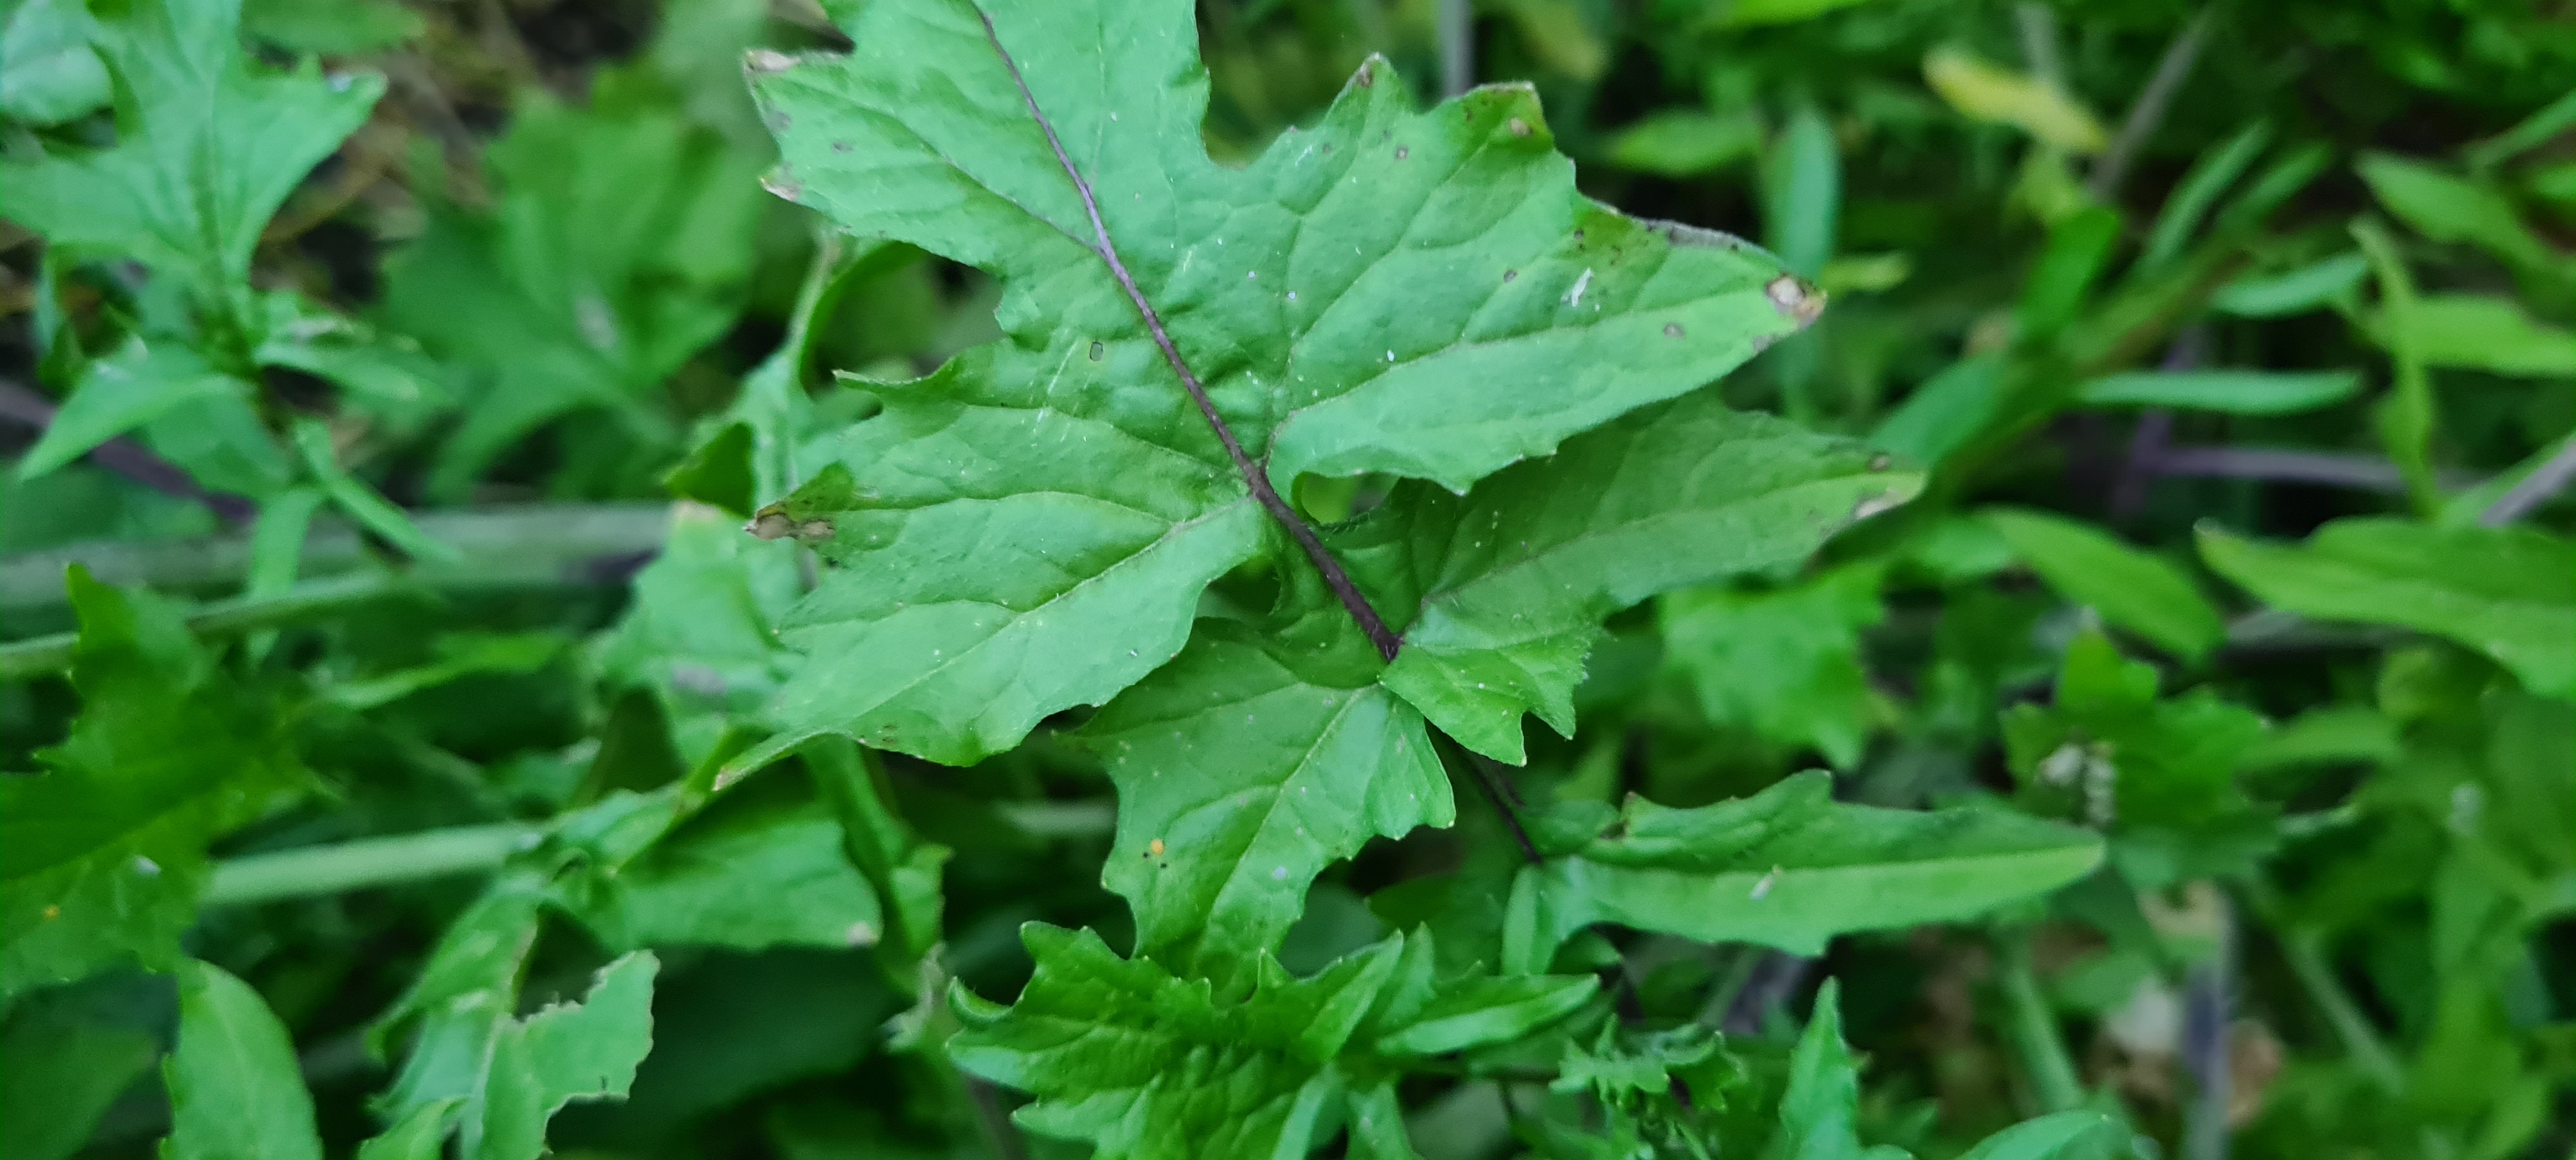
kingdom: Plantae
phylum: Tracheophyta
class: Magnoliopsida
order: Brassicales
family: Brassicaceae
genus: Sisymbrium
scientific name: Sisymbrium officinale
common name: Rank vejsennep
